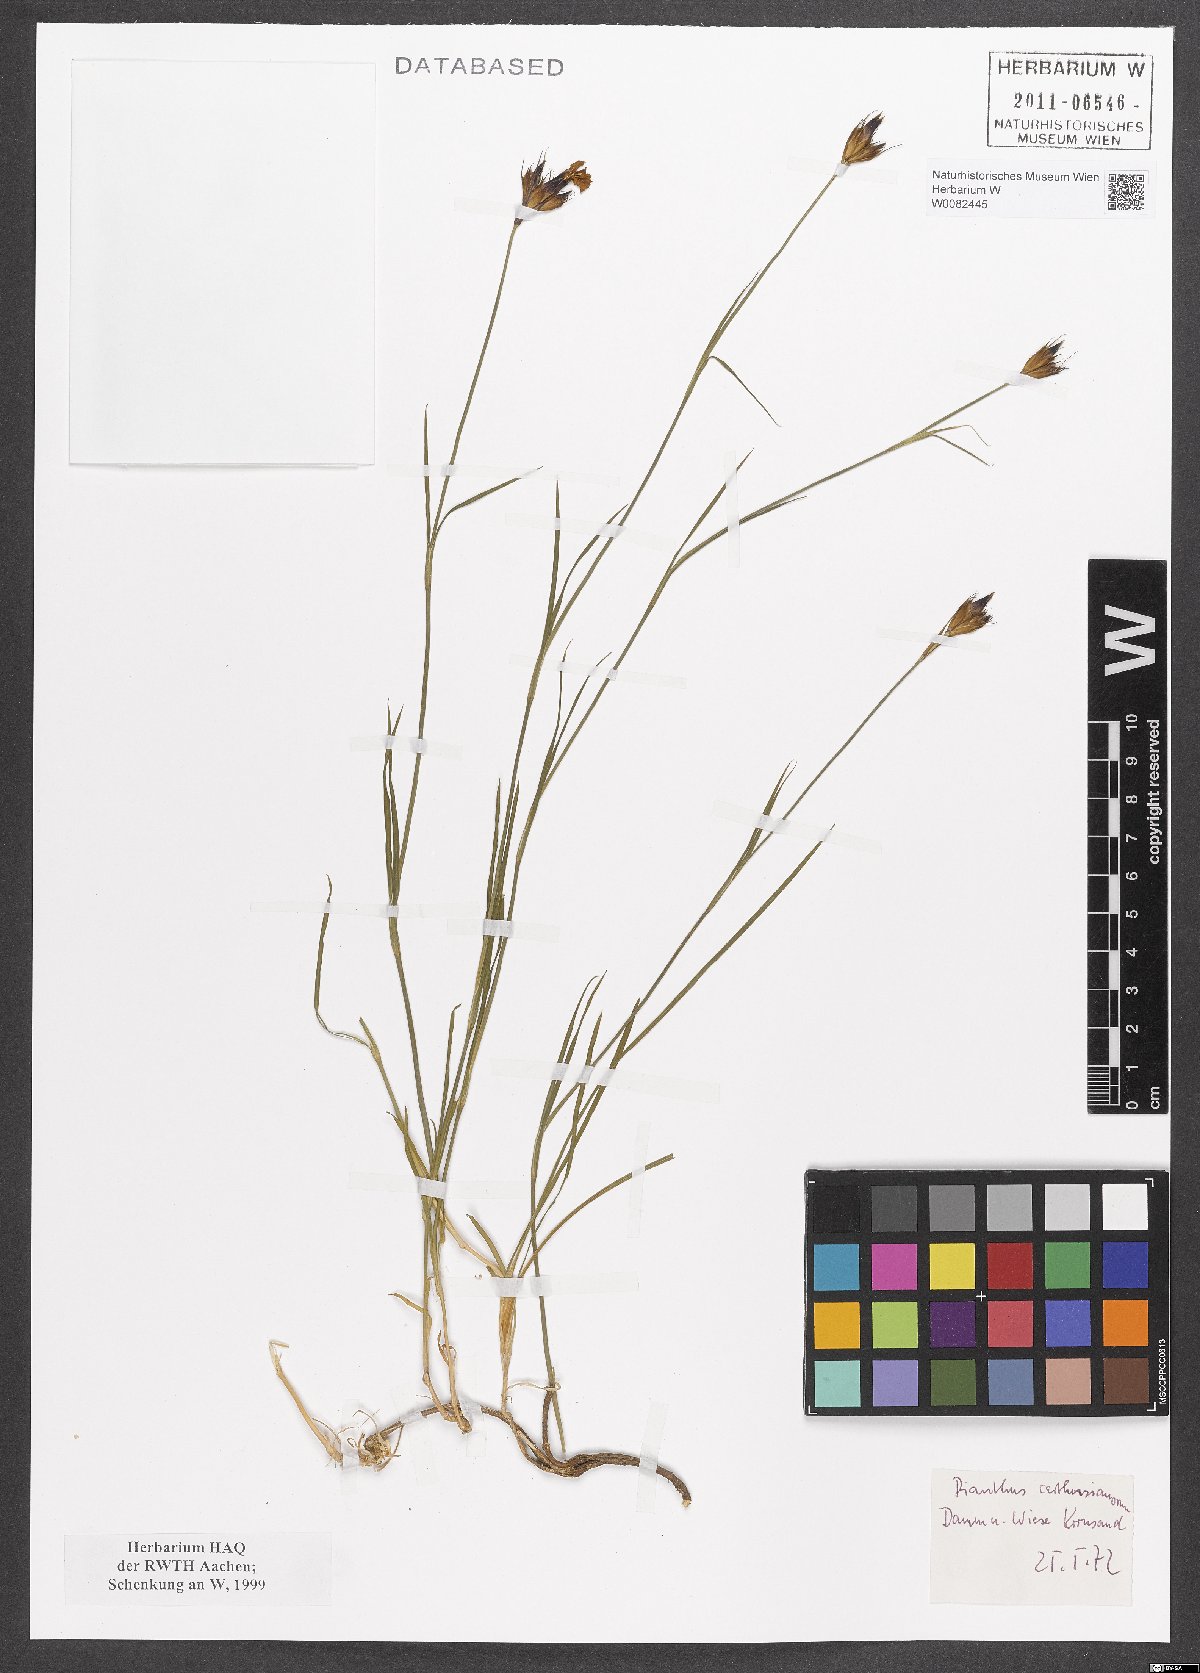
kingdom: Plantae
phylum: Tracheophyta
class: Magnoliopsida
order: Caryophyllales
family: Caryophyllaceae
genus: Dianthus
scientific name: Dianthus carthusianorum
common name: Carthusian pink
